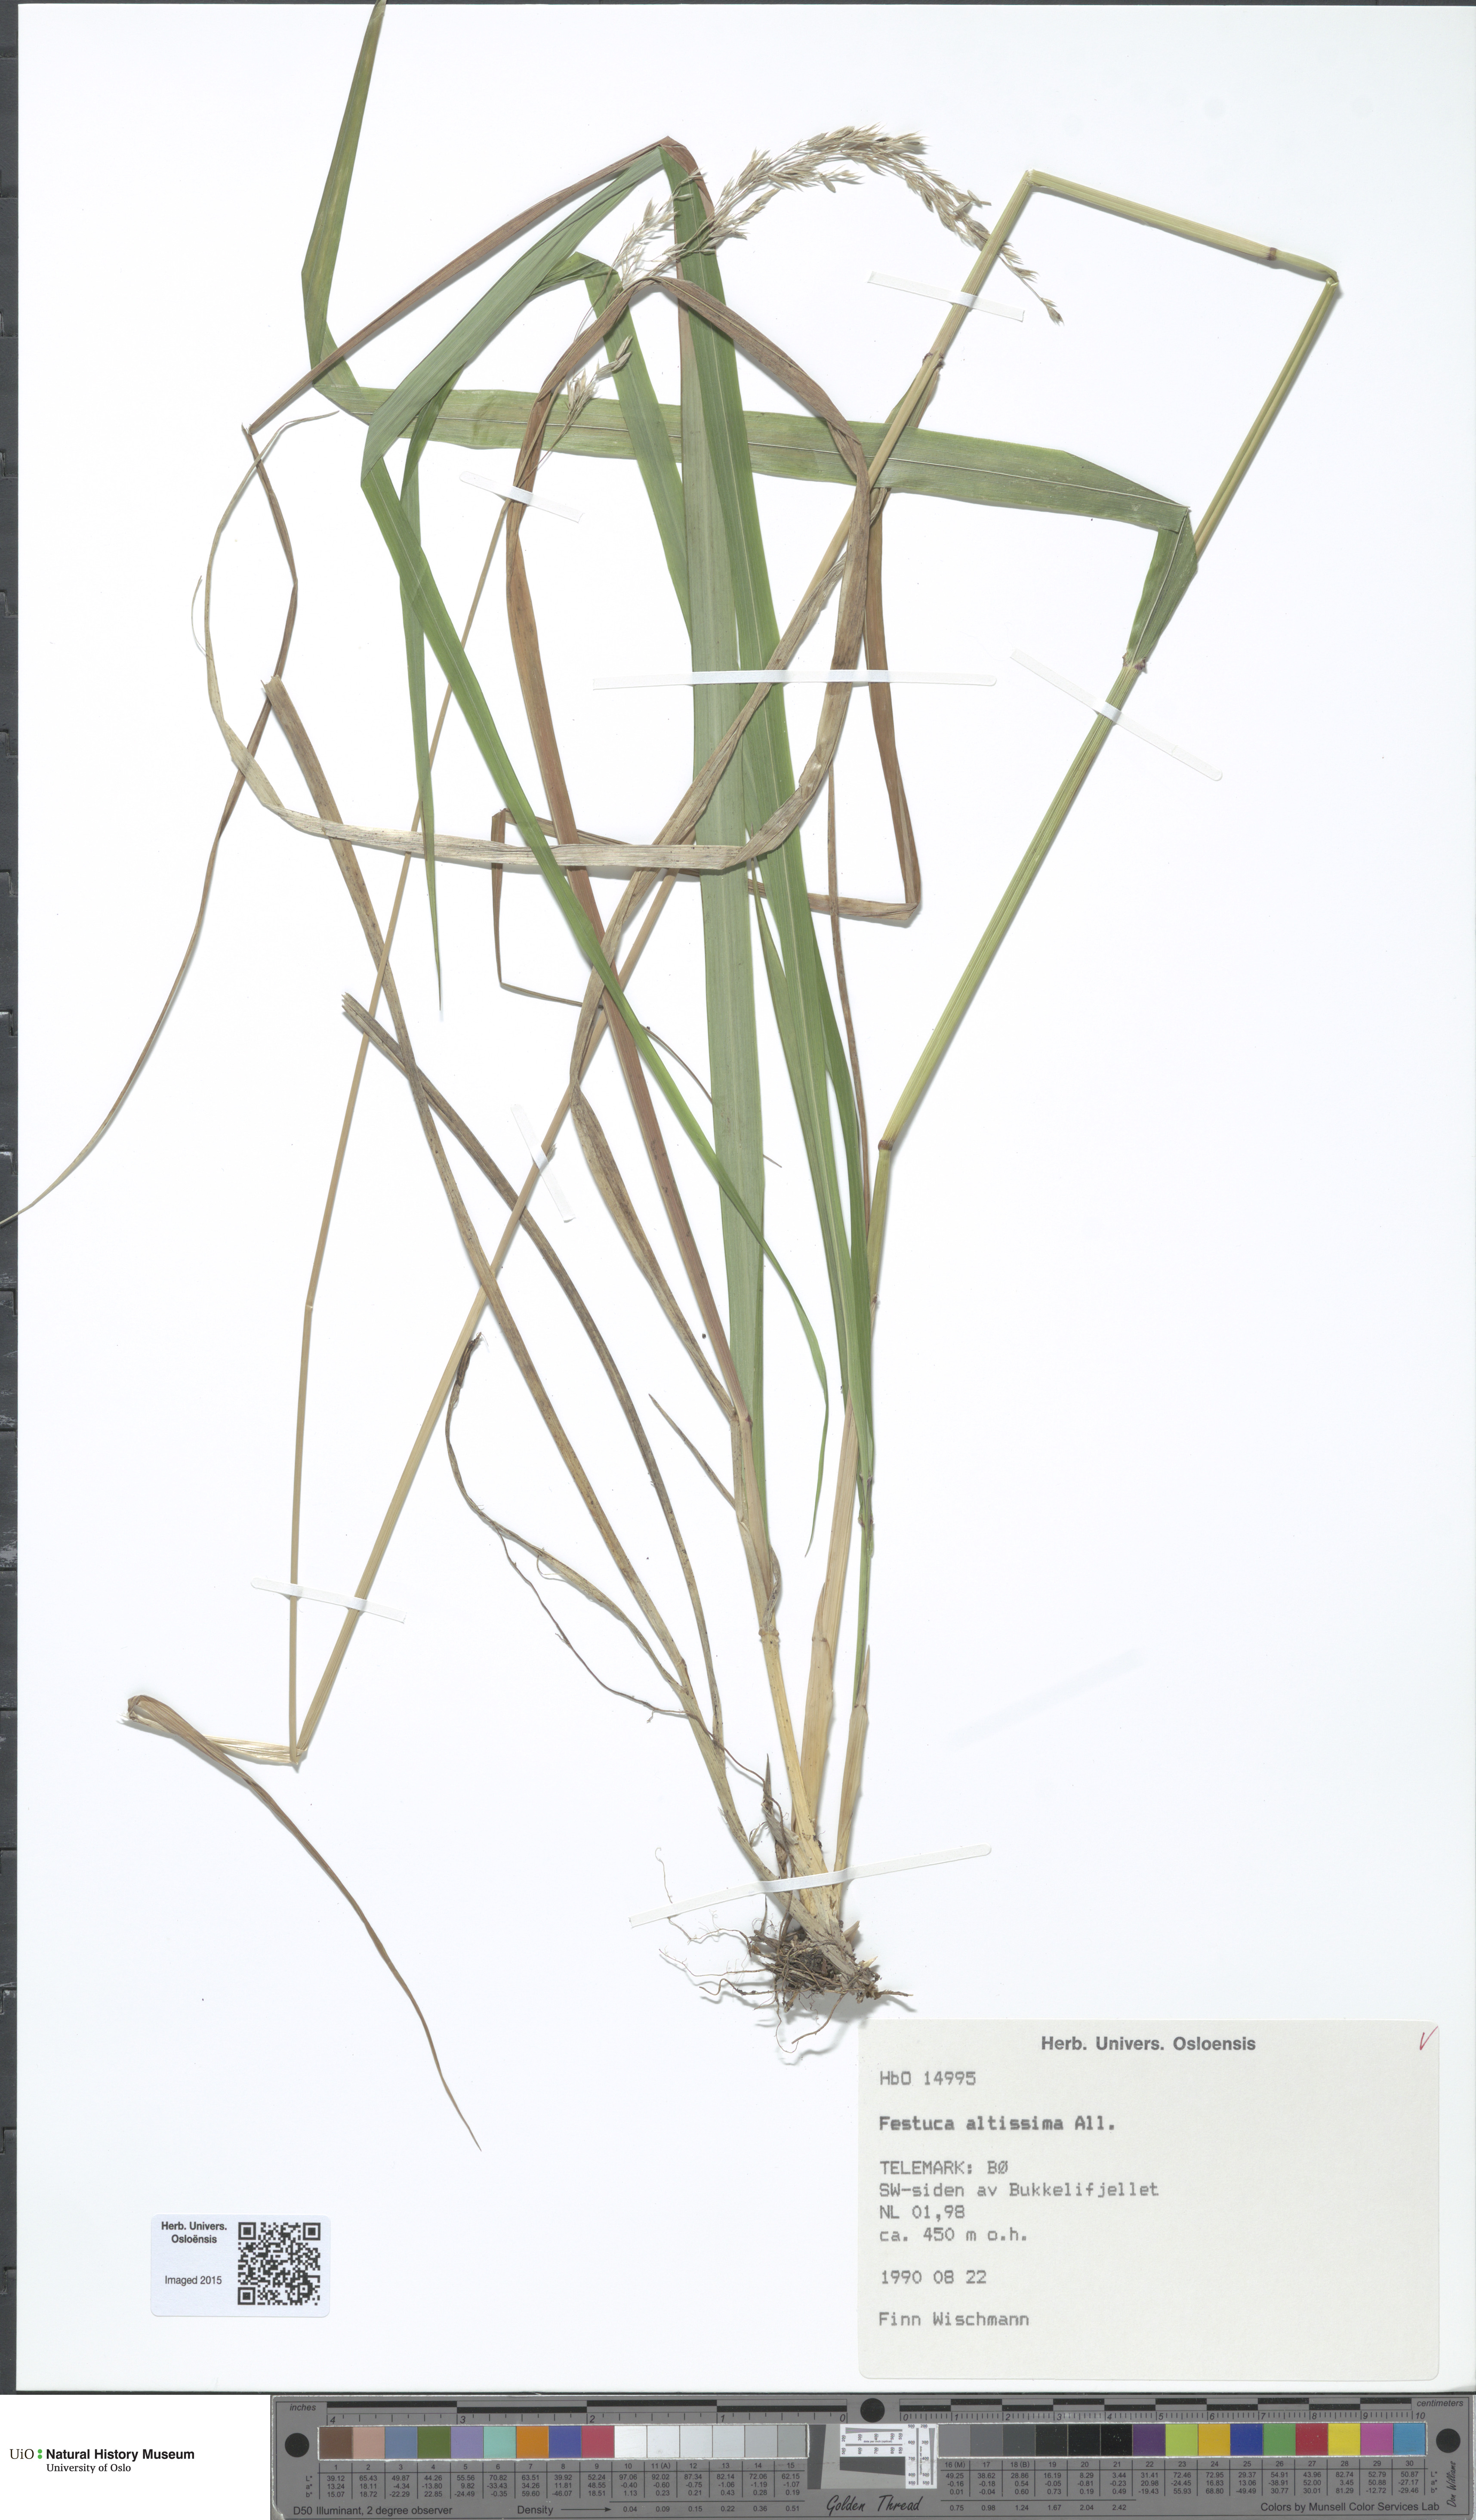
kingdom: Plantae
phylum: Tracheophyta
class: Liliopsida
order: Poales
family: Poaceae
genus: Festuca
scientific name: Festuca altissima
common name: Wood fescue
